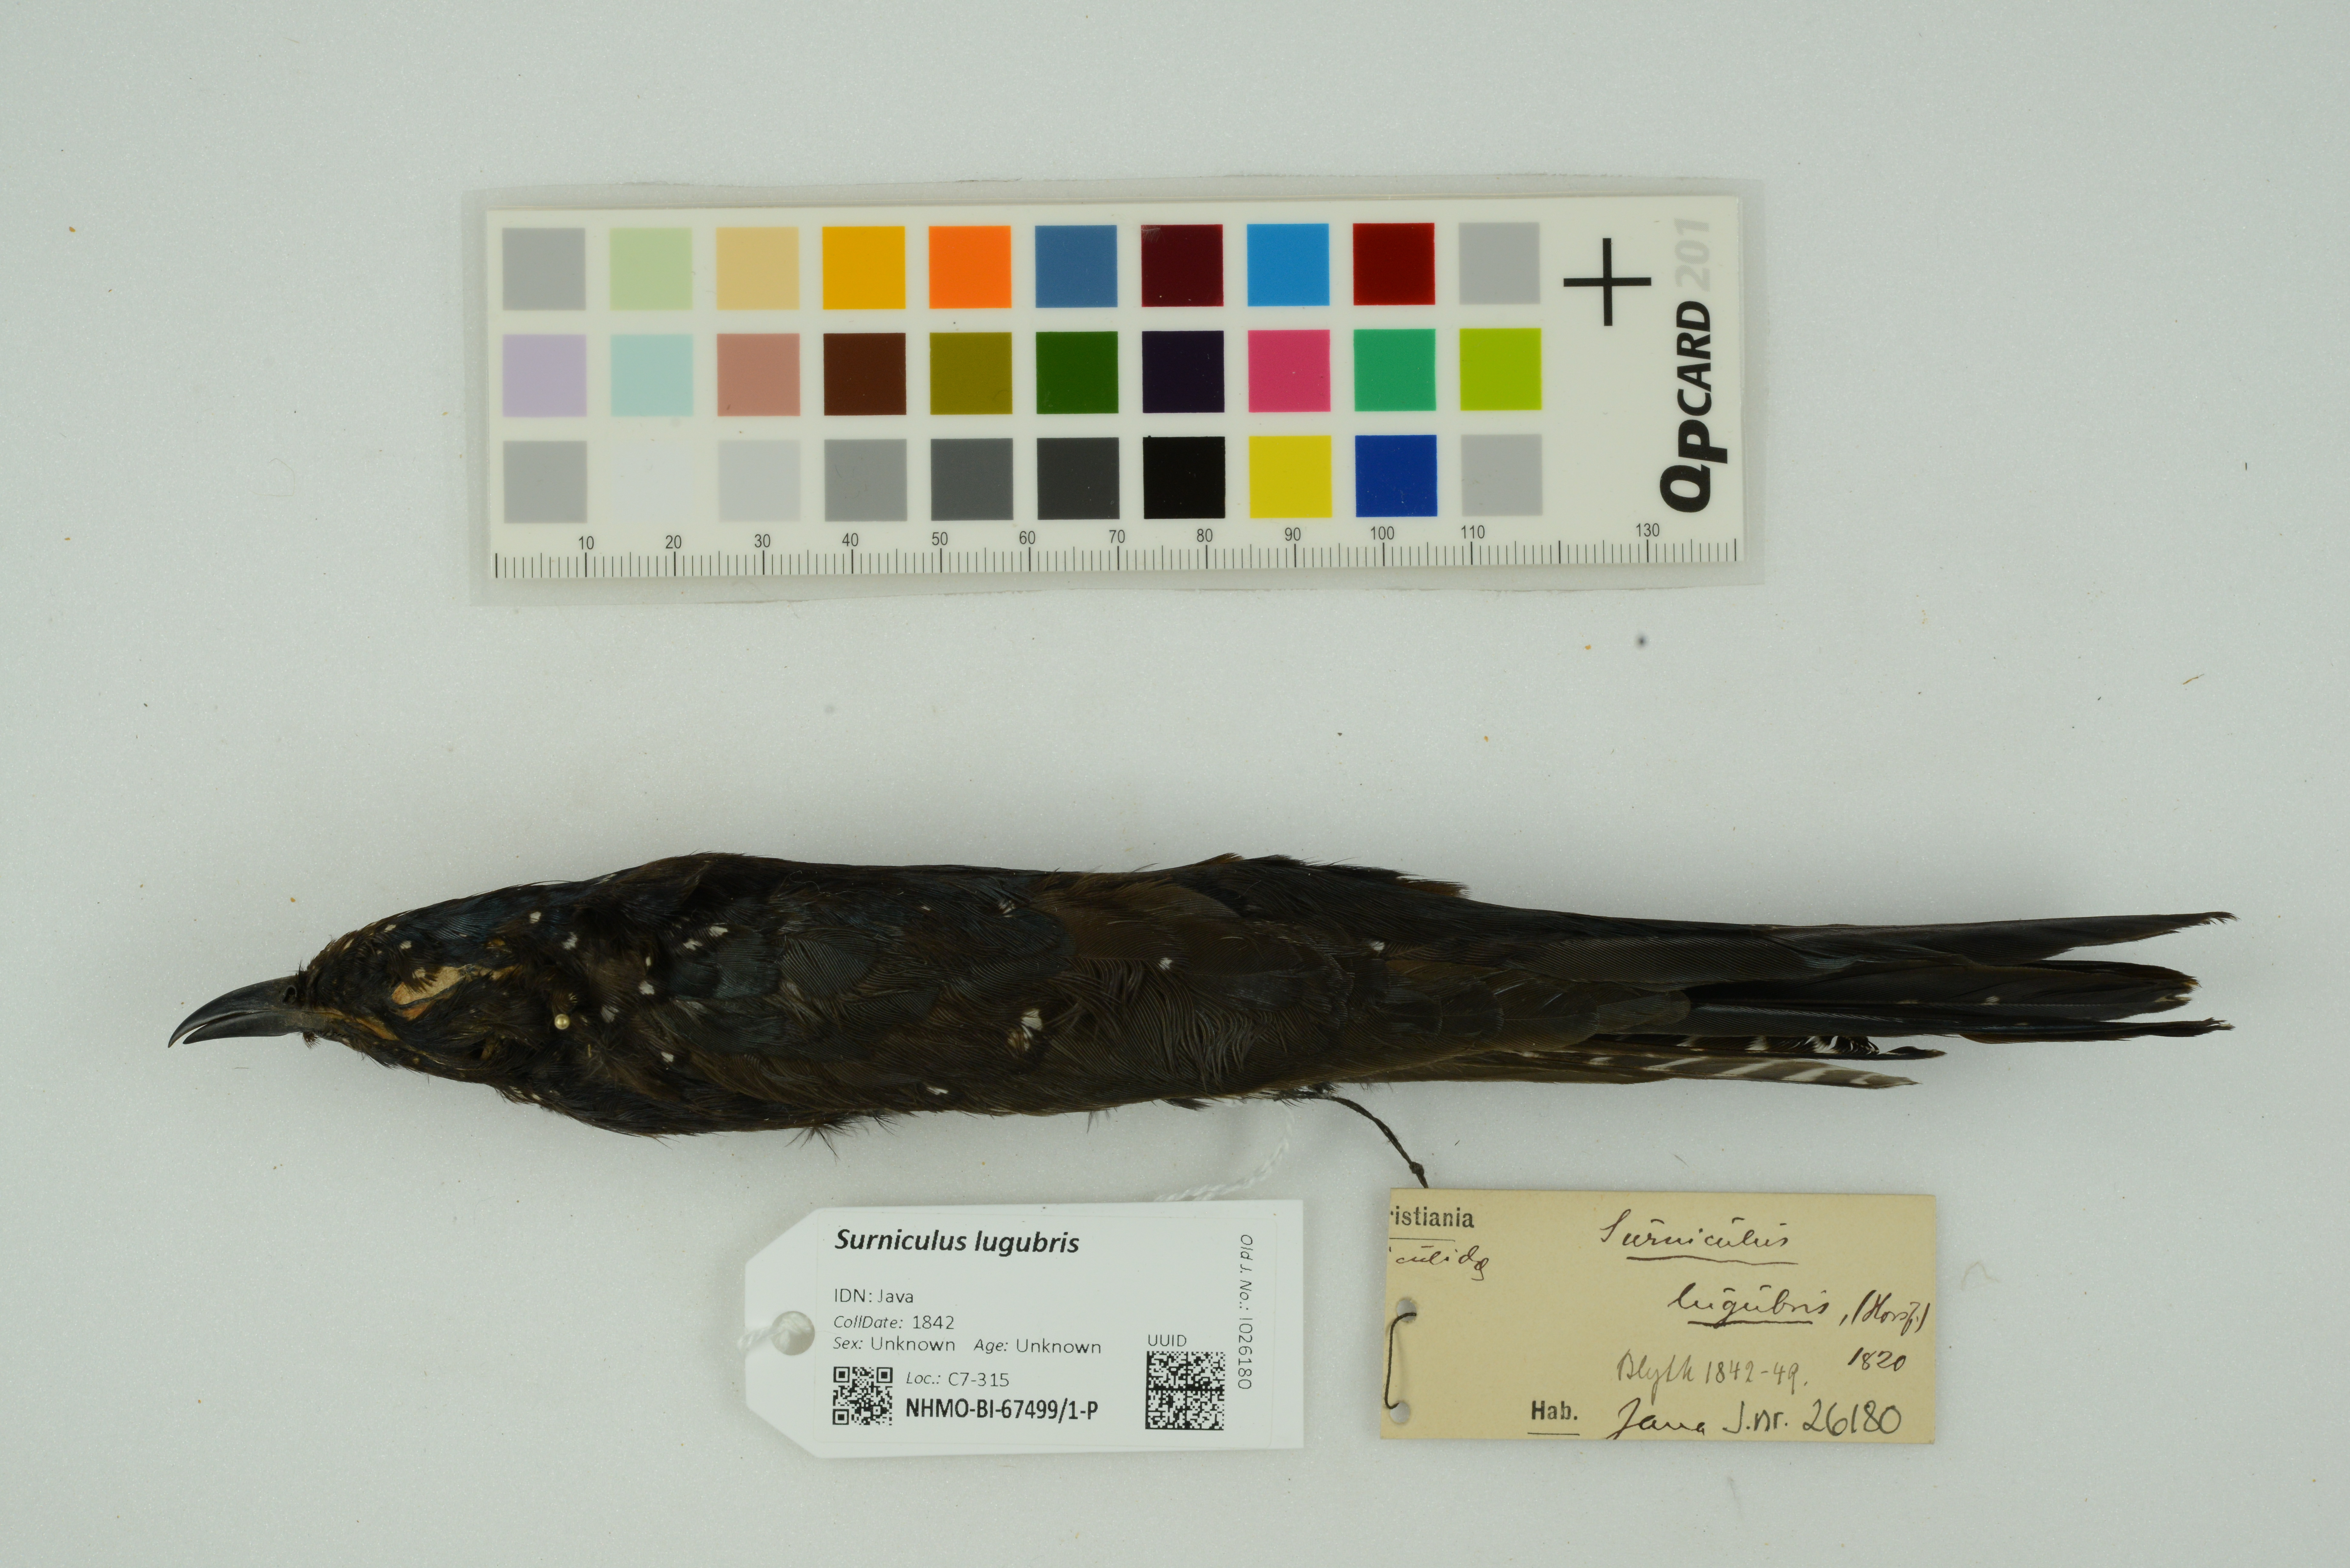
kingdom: Animalia
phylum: Chordata
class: Aves
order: Cuculiformes
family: Cuculidae
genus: Surniculus
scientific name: Surniculus lugubris
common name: Square-tailed drongo-cuckoo
